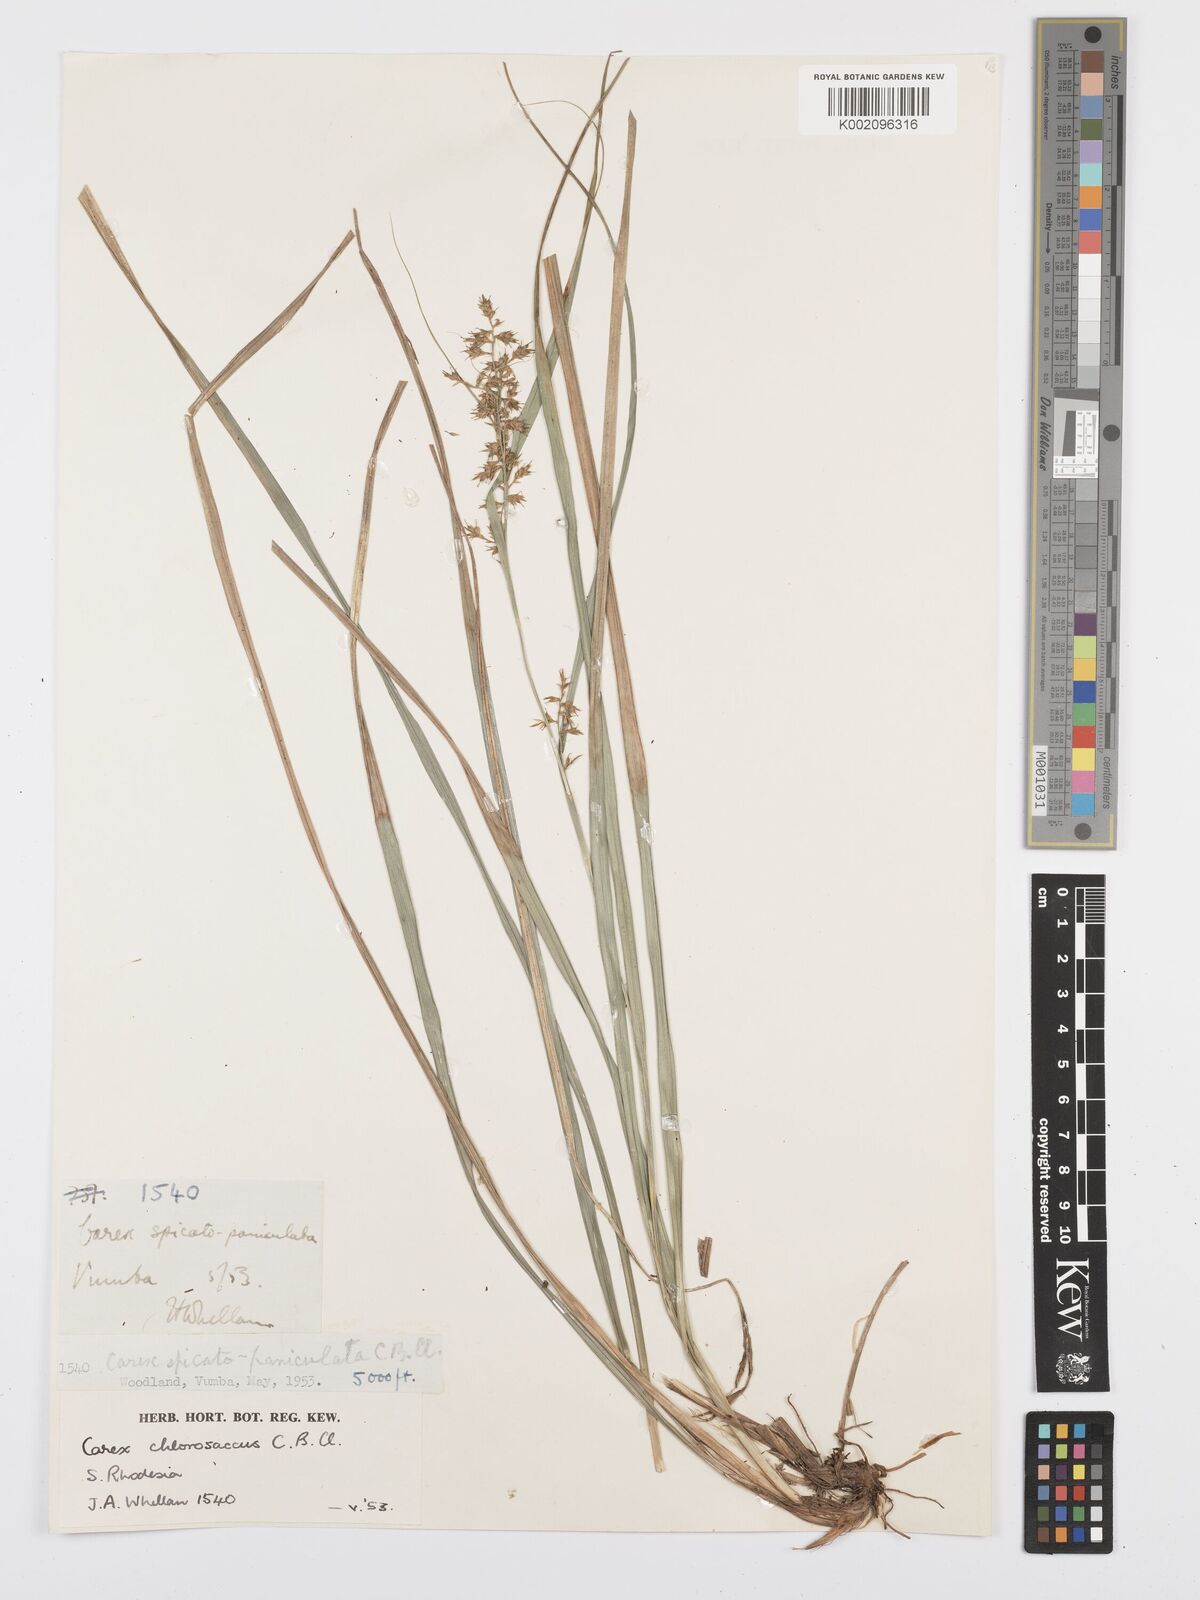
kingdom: Plantae
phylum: Tracheophyta
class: Liliopsida
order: Poales
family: Cyperaceae
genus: Carex
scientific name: Carex chlorosaccus
